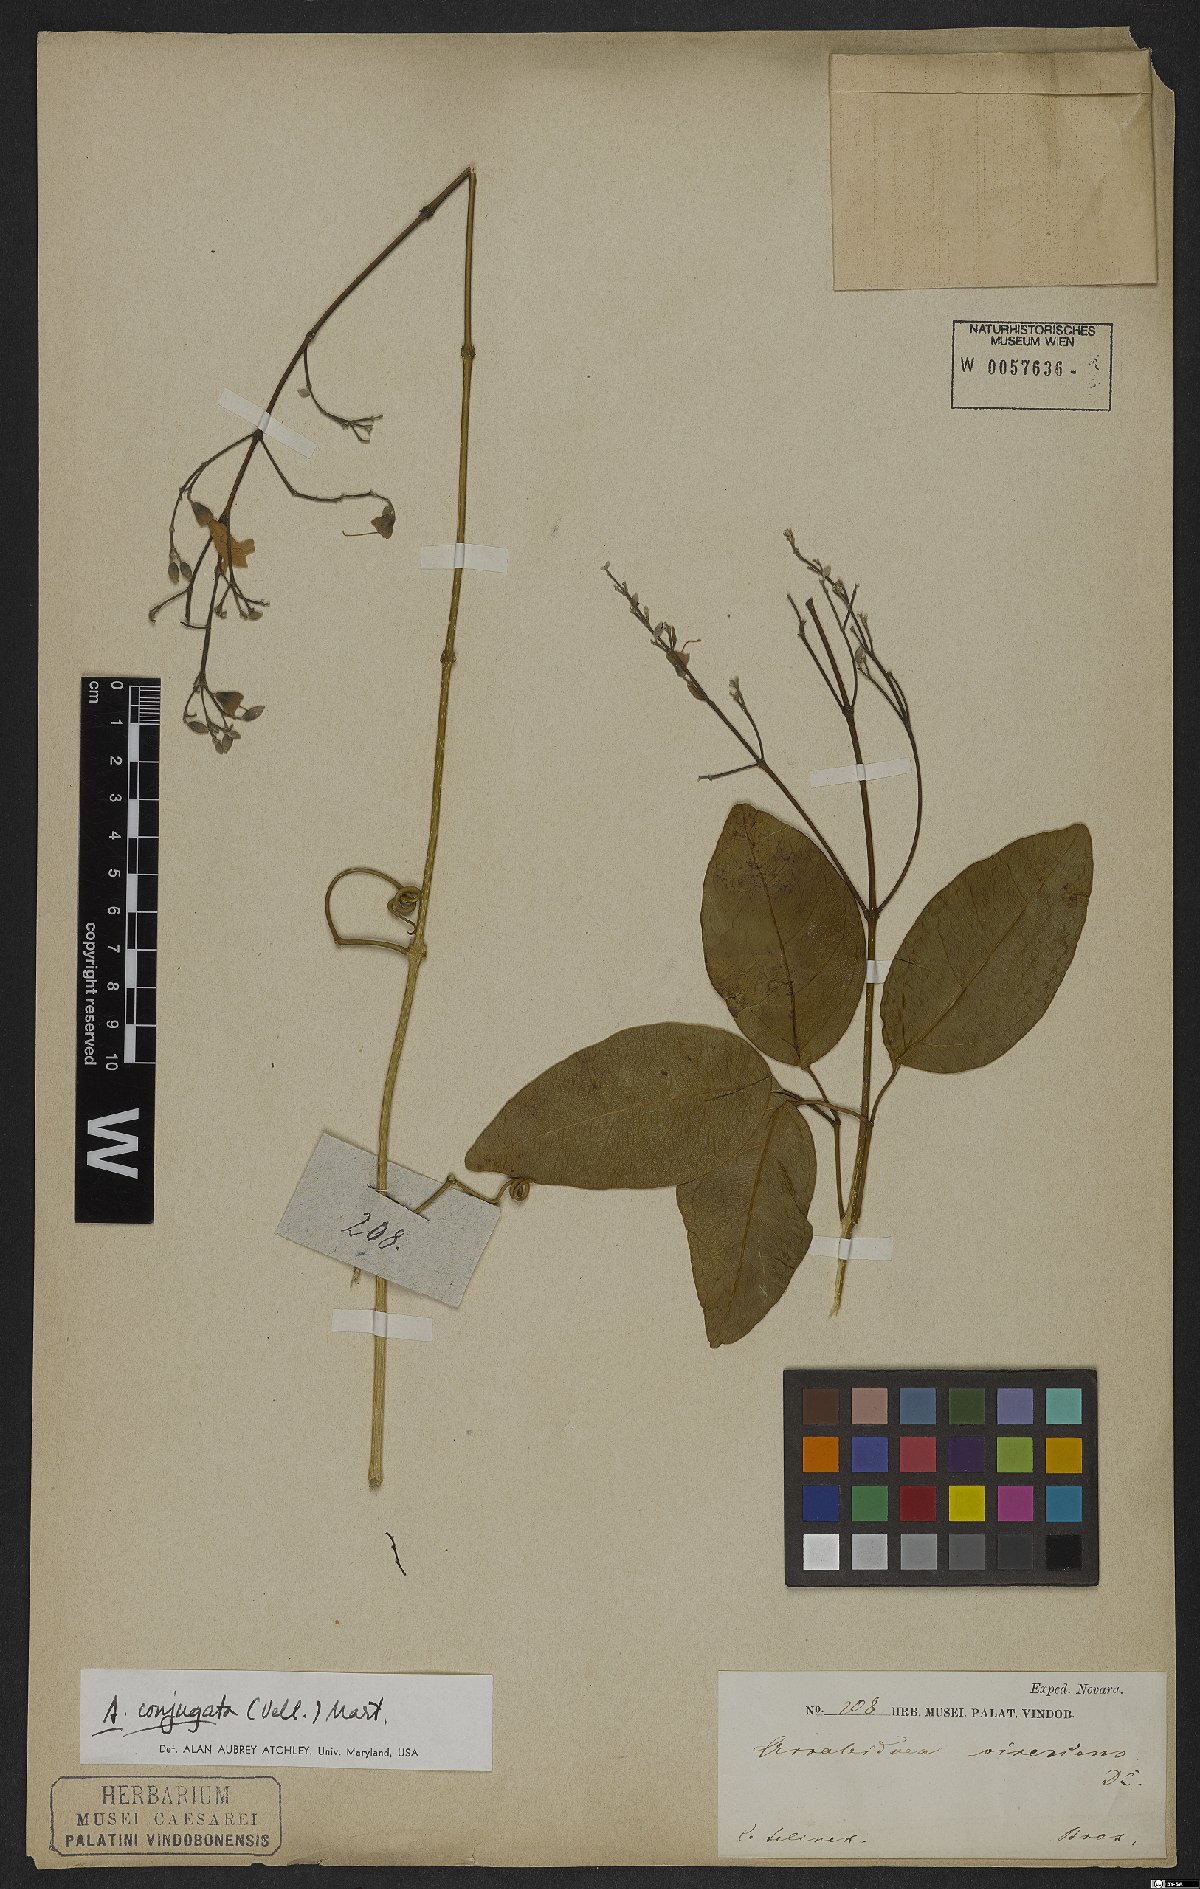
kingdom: Plantae
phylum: Tracheophyta
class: Magnoliopsida
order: Lamiales
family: Bignoniaceae
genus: Fridericia
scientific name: Fridericia conjugata
